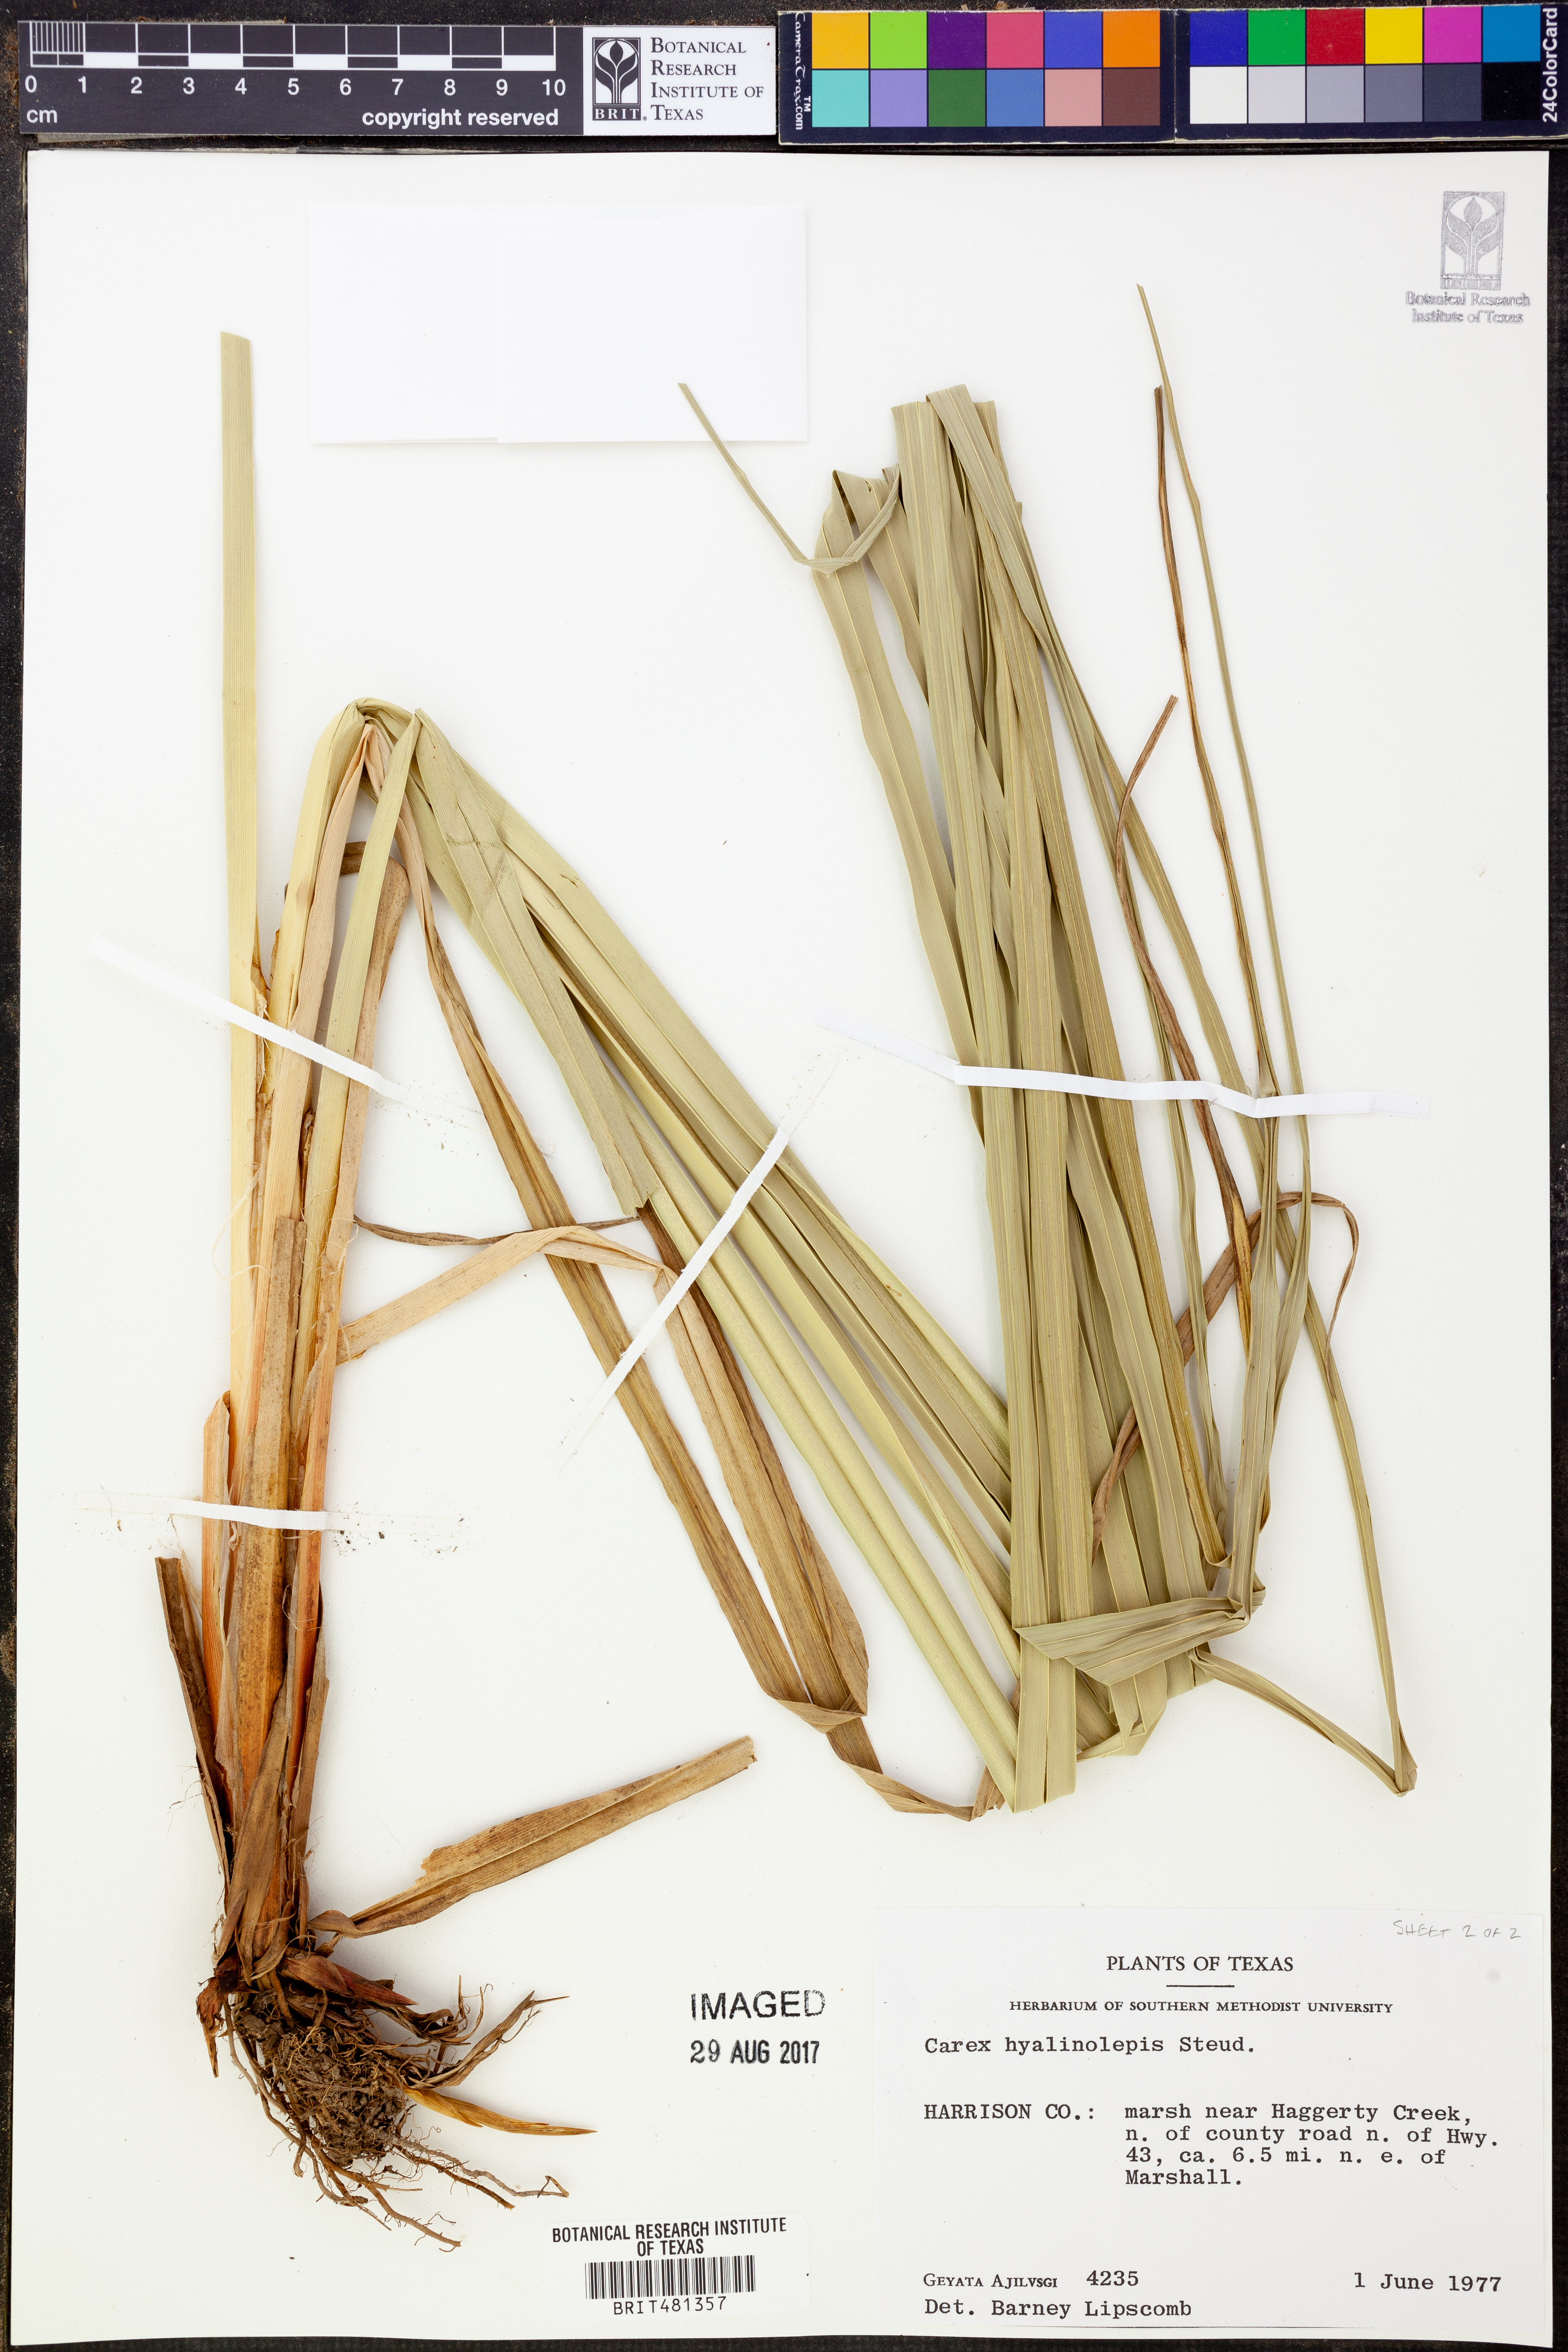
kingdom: Plantae
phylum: Tracheophyta
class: Liliopsida
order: Poales
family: Cyperaceae
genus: Carex
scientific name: Carex hyalinolepis
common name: Shoreline sedge
